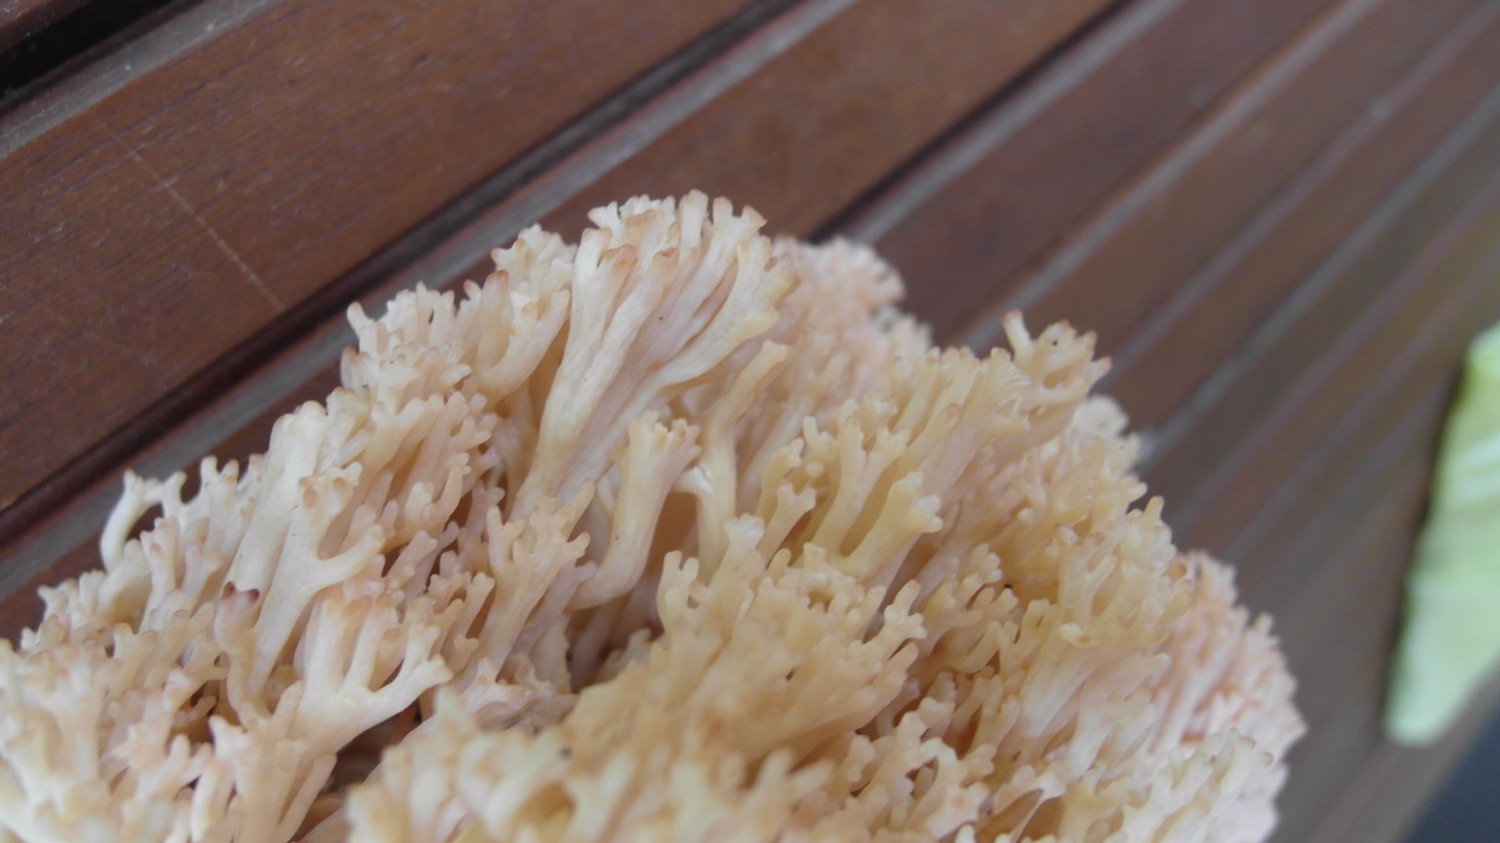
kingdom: Fungi
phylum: Basidiomycota
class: Agaricomycetes
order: Gomphales
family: Gomphaceae
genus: Ramaria
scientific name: Ramaria botrytis
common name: drue-koralsvamp
